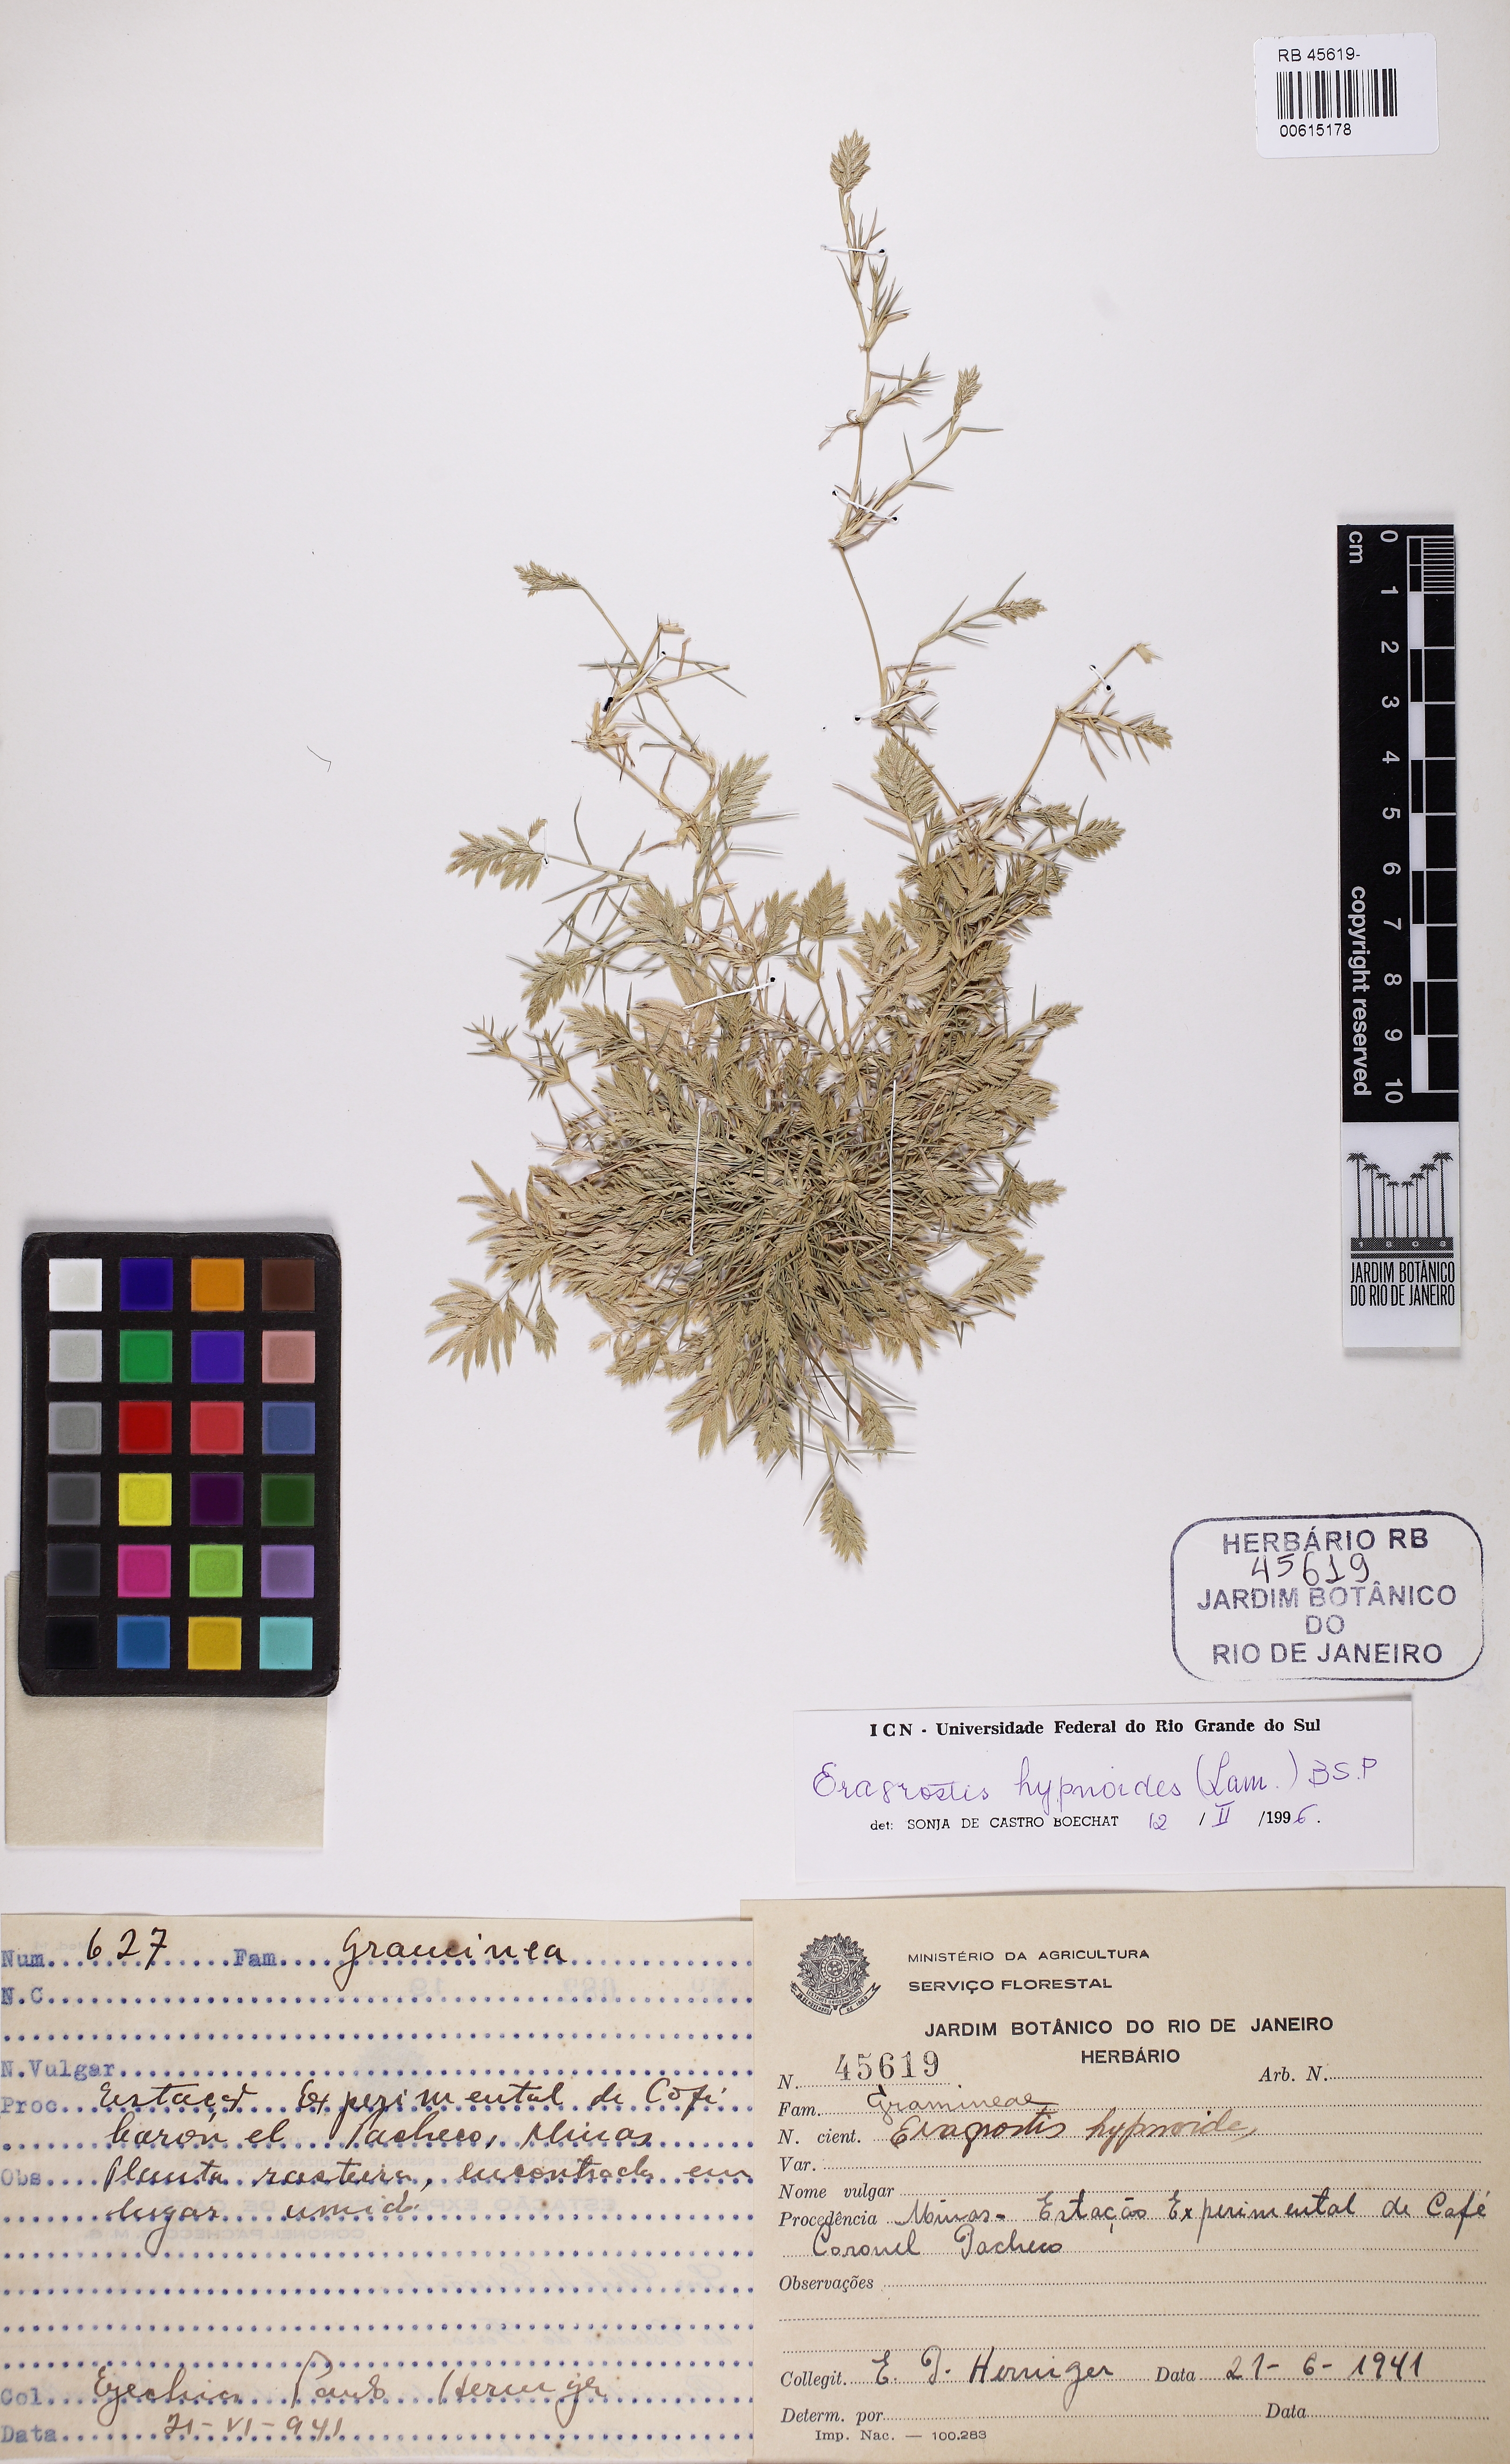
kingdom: Plantae
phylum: Tracheophyta
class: Liliopsida
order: Poales
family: Poaceae
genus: Eragrostis
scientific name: Eragrostis hypnoides
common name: Creeping love grass
